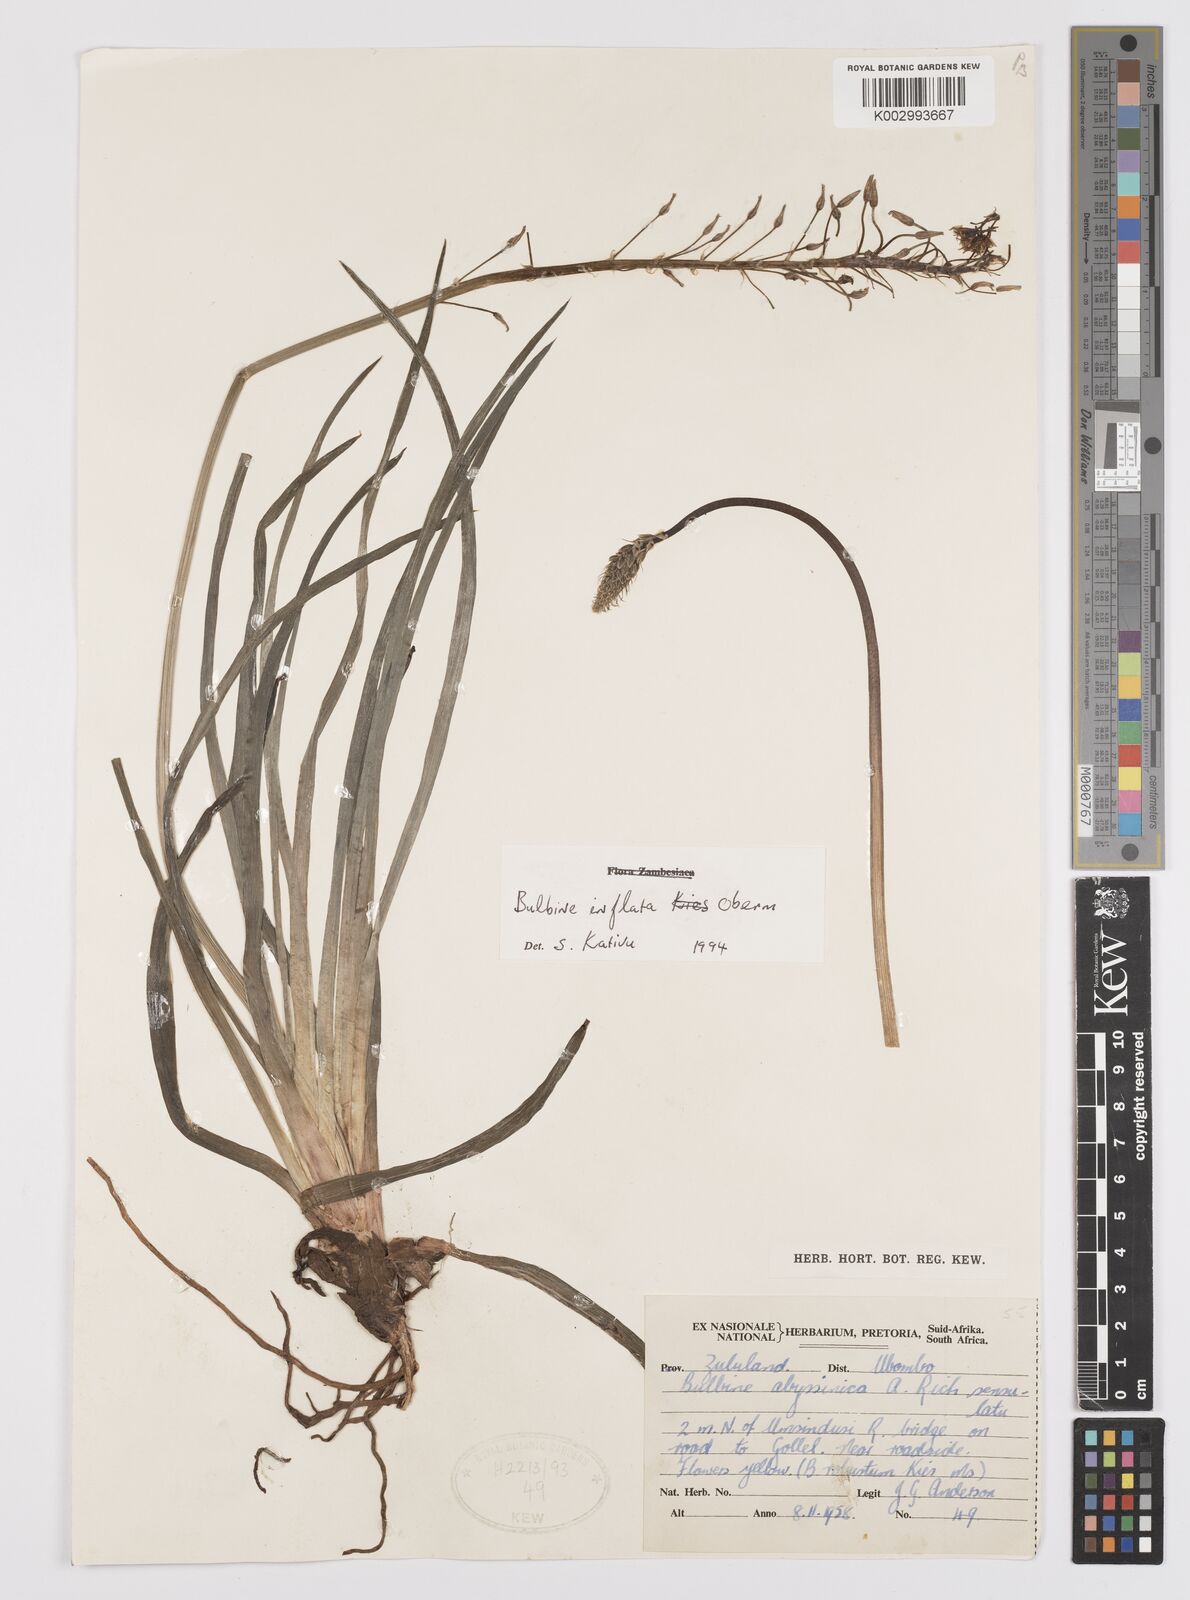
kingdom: Plantae
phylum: Tracheophyta
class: Liliopsida
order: Asparagales
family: Asphodelaceae
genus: Bulbine
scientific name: Bulbine inflata
